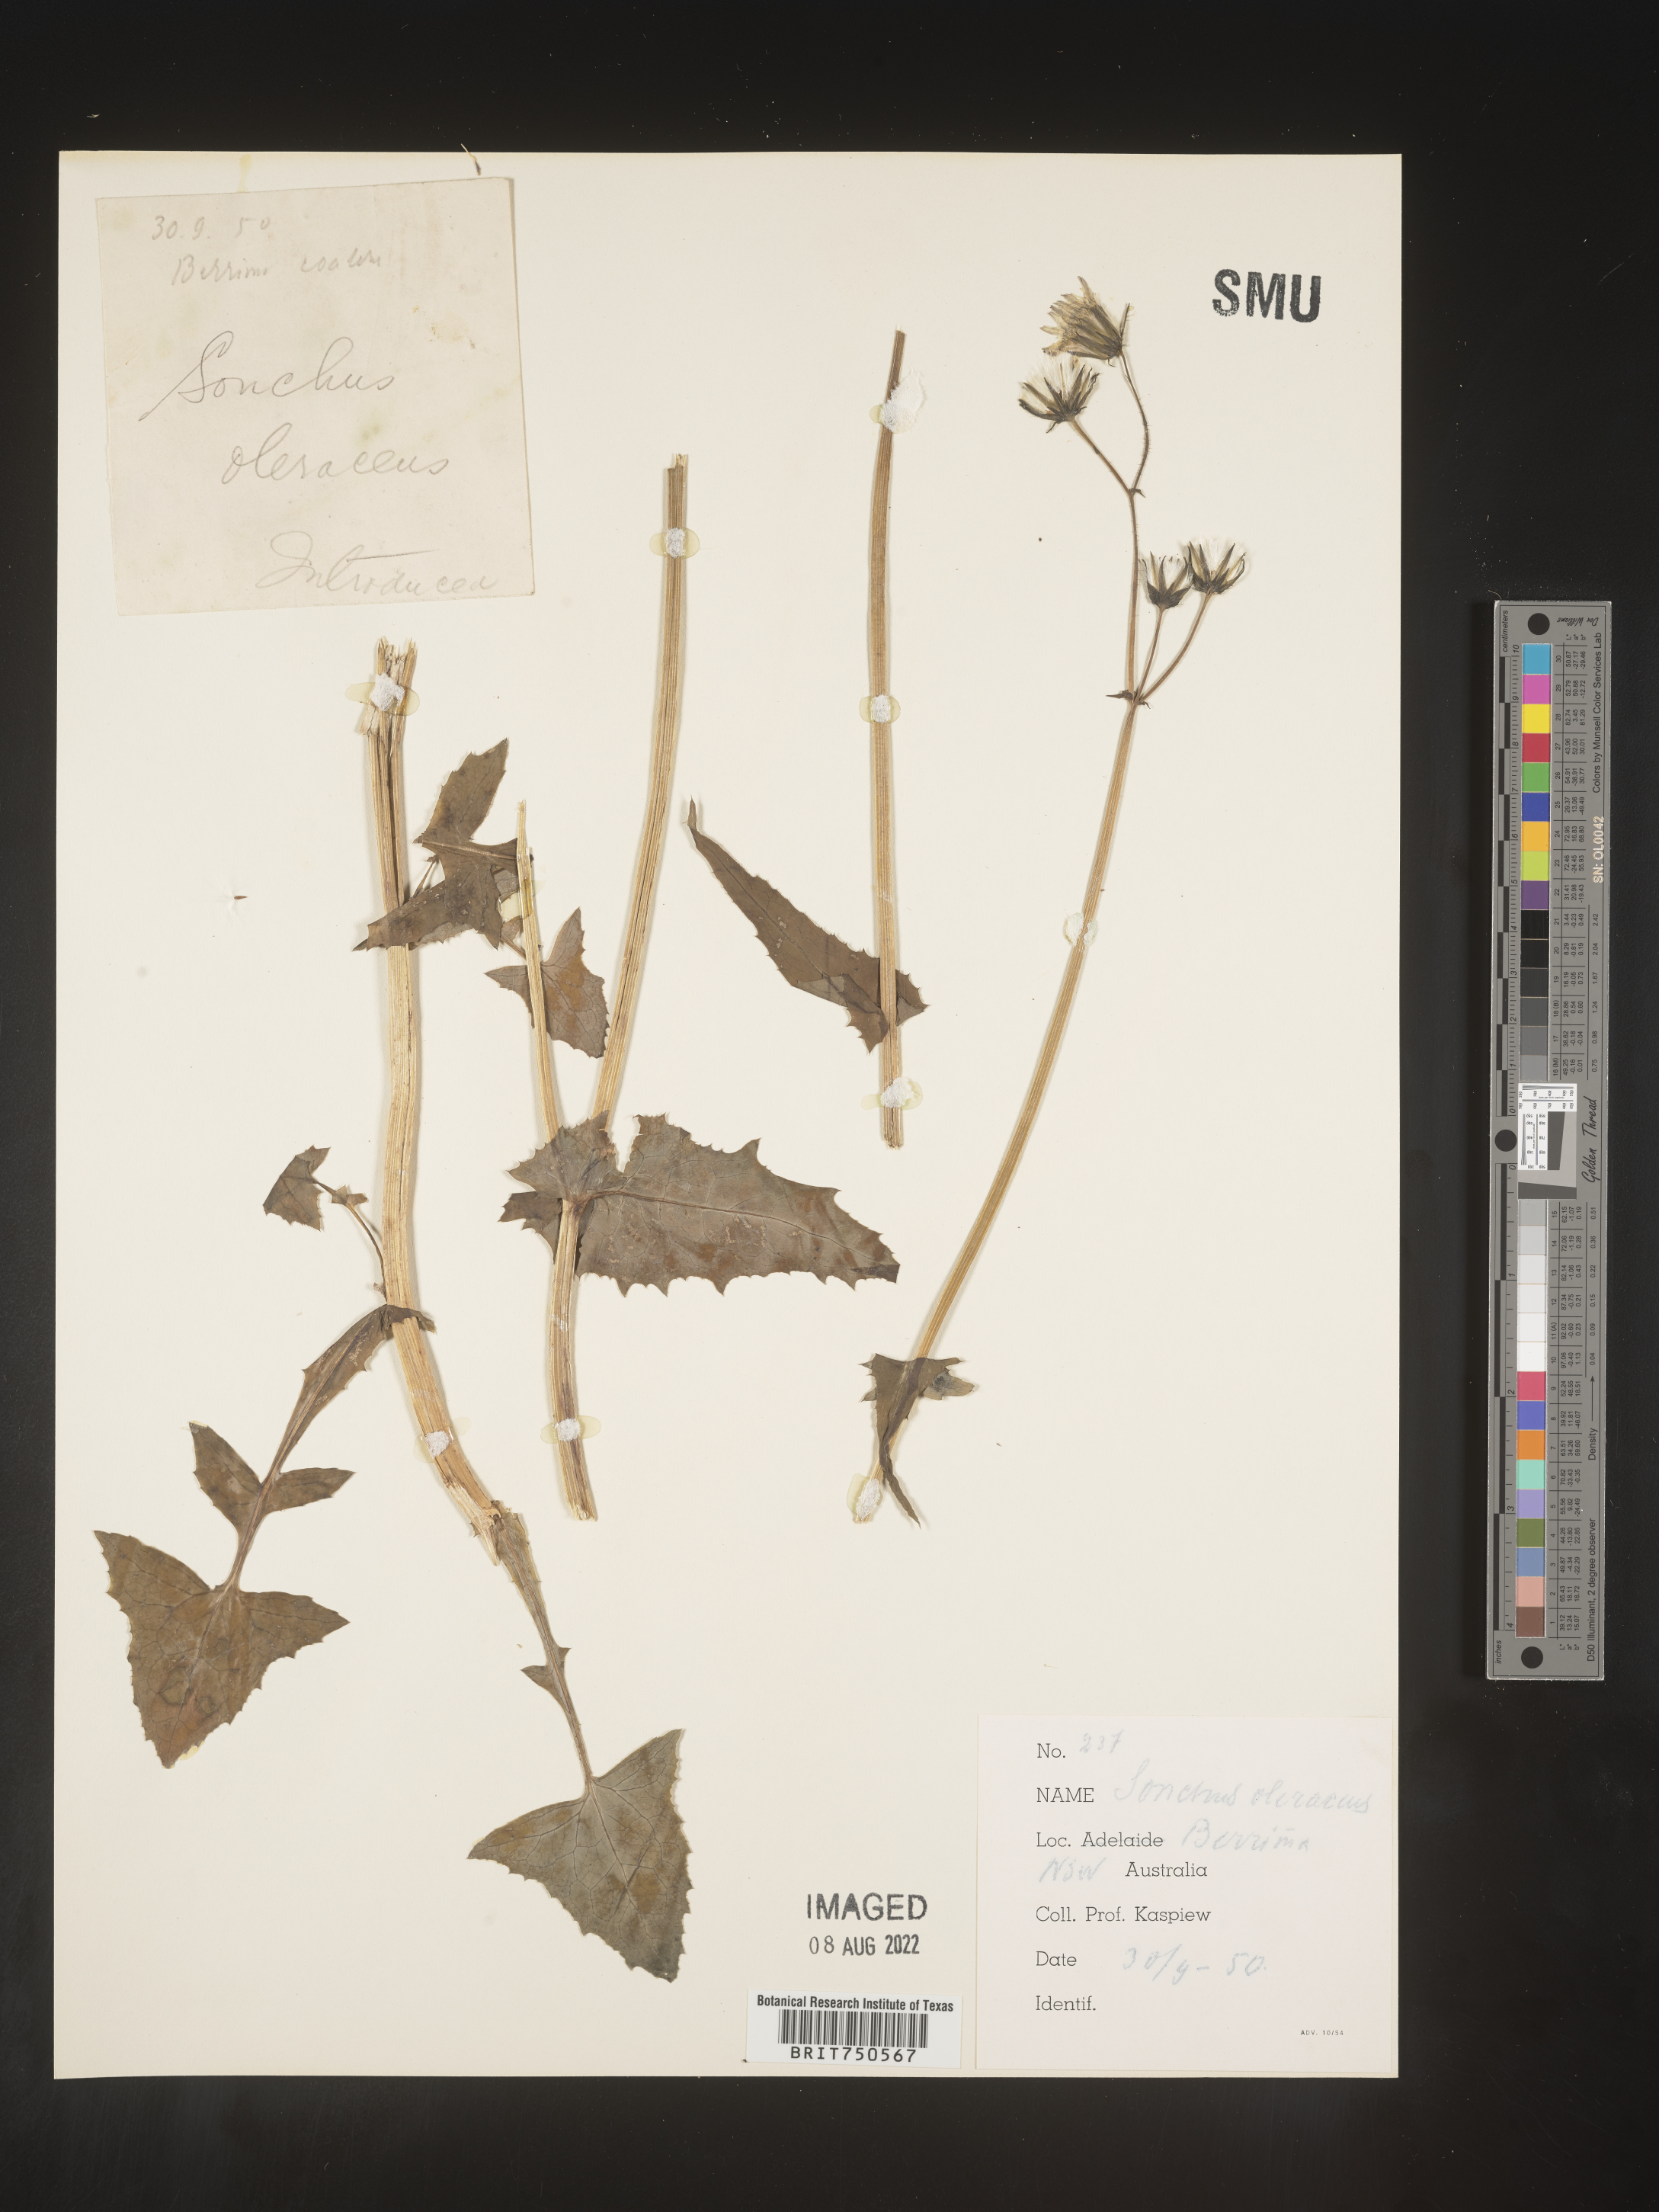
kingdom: Plantae
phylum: Tracheophyta
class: Magnoliopsida
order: Asterales
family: Asteraceae
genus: Sonchus
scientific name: Sonchus
